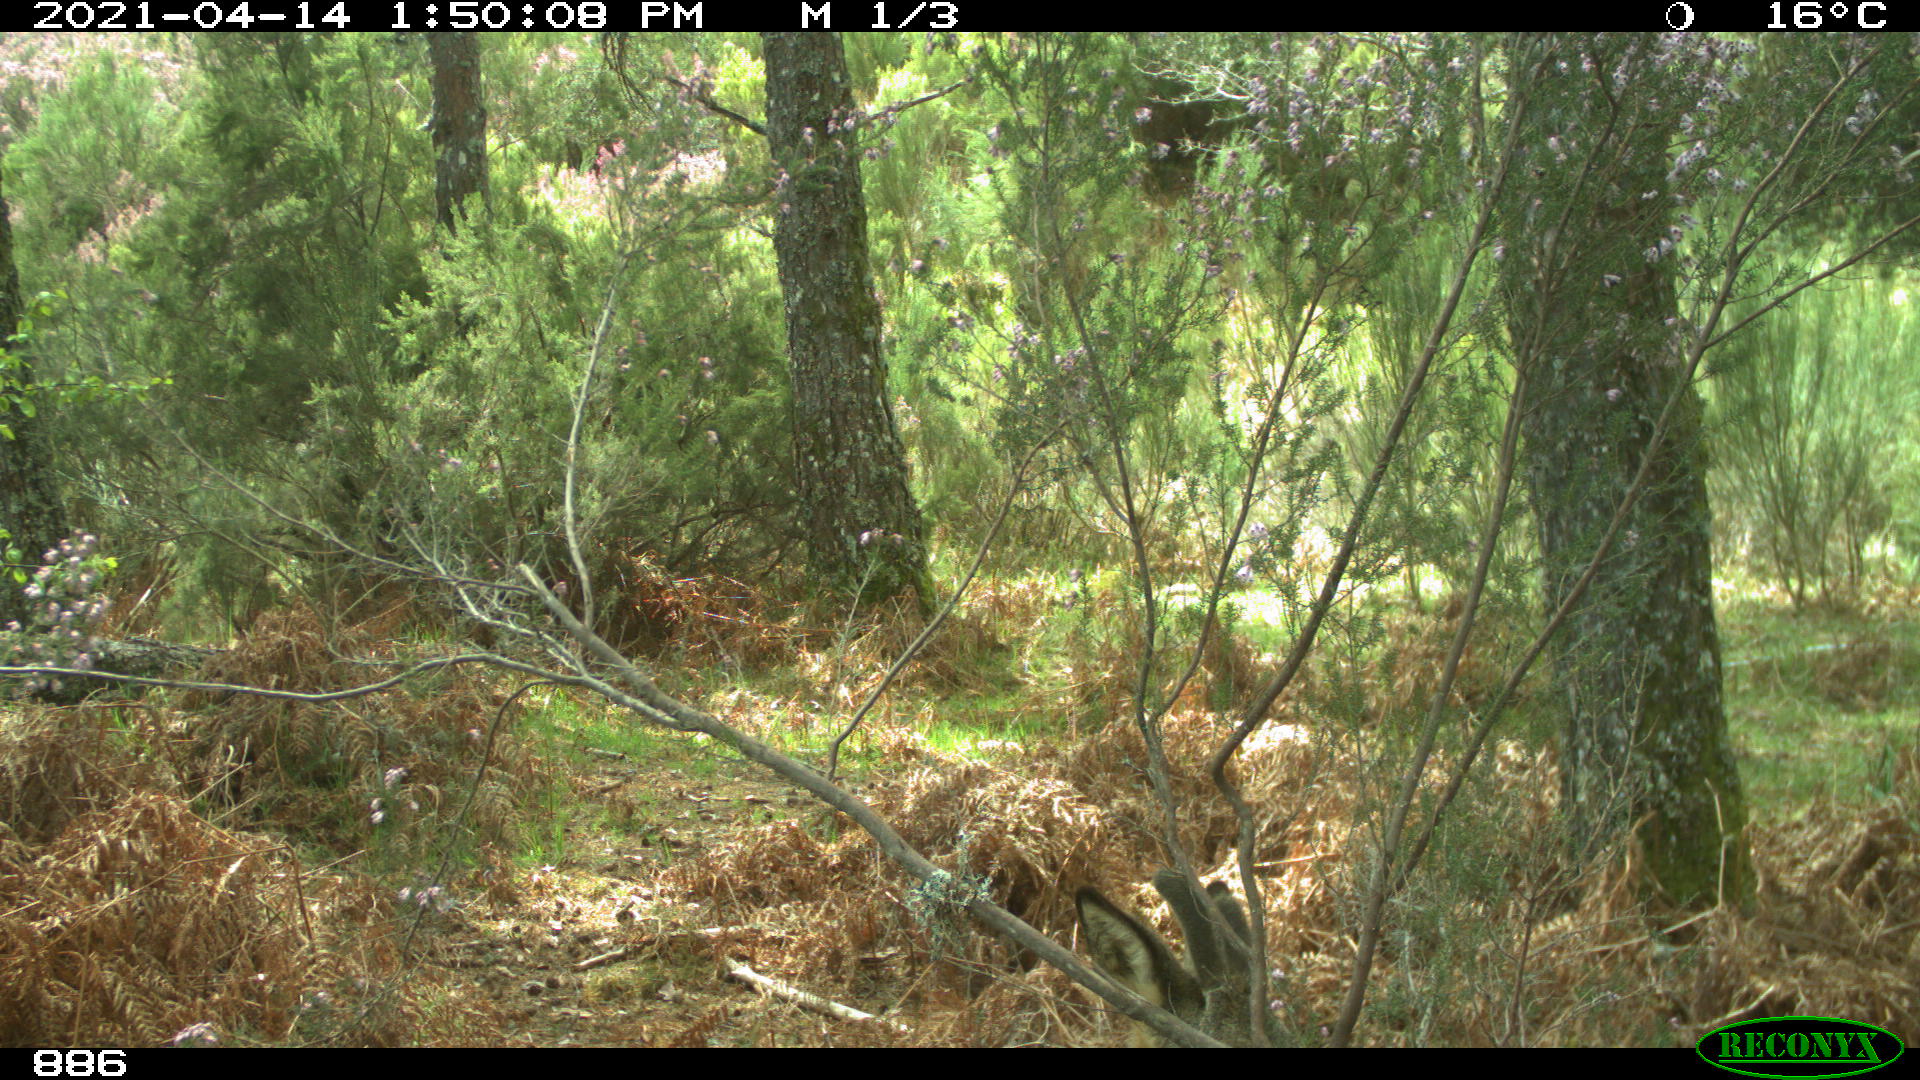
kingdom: Animalia
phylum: Chordata
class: Mammalia
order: Artiodactyla
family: Cervidae
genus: Capreolus
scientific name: Capreolus capreolus
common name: Western roe deer
